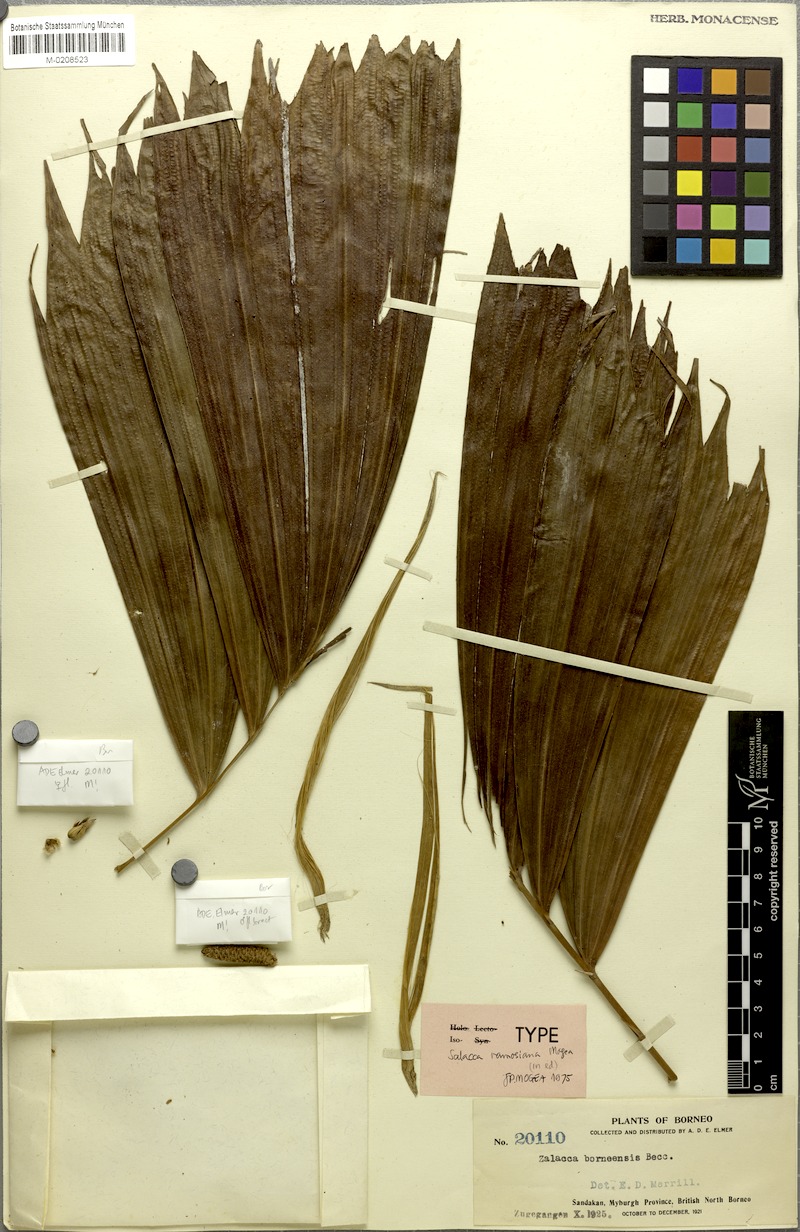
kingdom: Plantae
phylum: Tracheophyta
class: Liliopsida
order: Arecales
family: Arecaceae
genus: Salacca
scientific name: Salacca ramosiana
